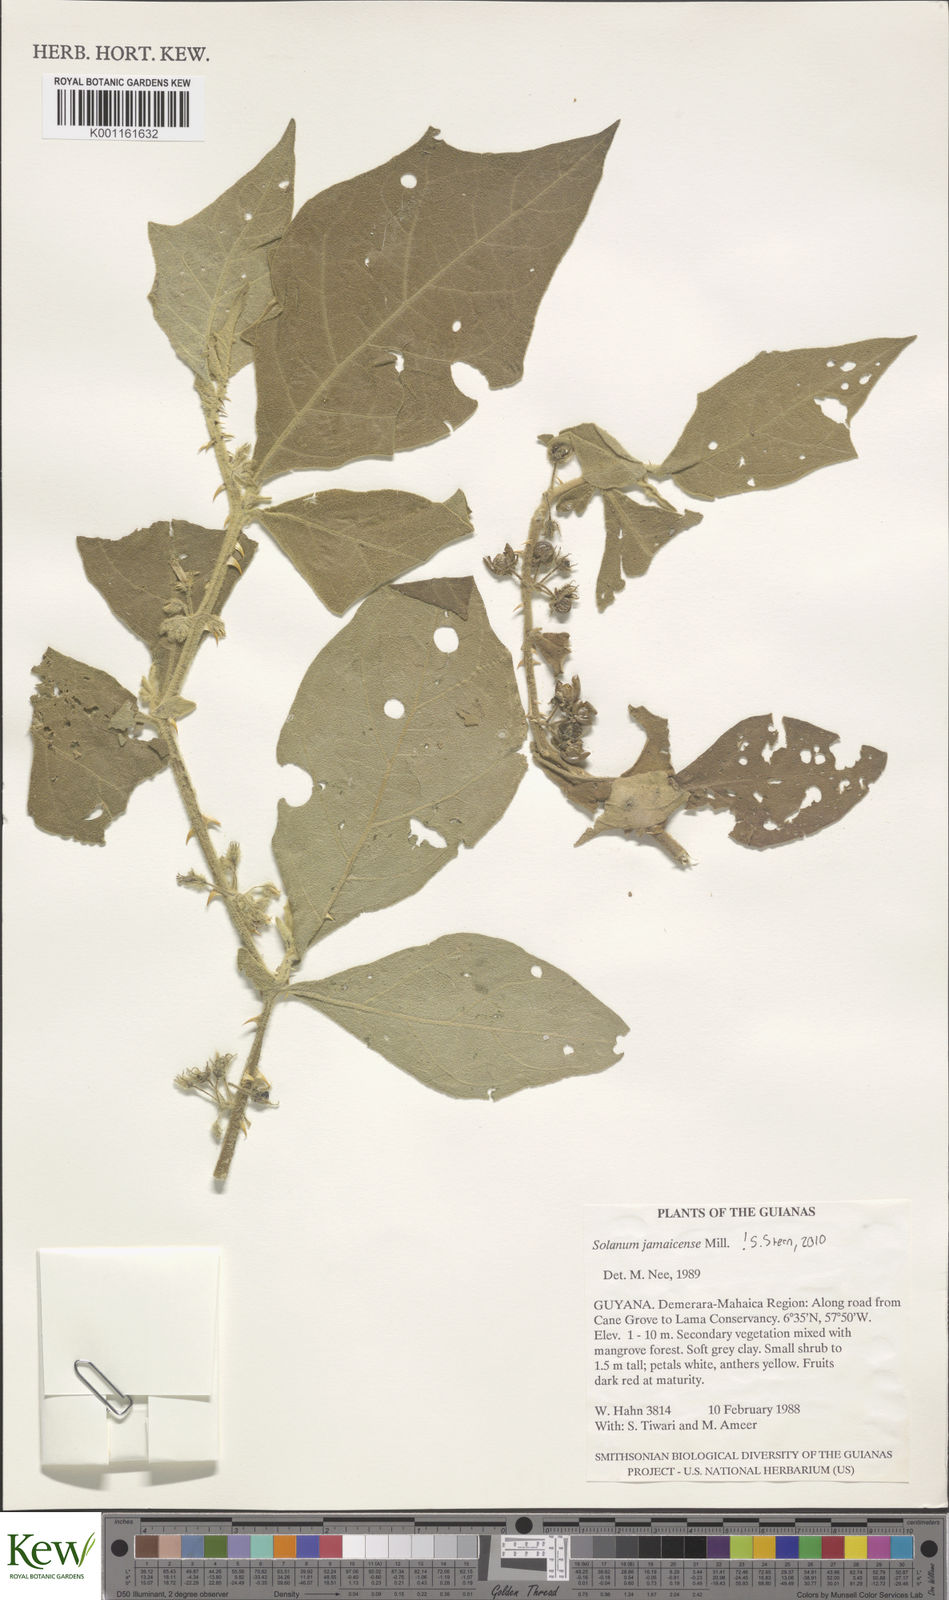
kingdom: Plantae
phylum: Tracheophyta
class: Magnoliopsida
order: Solanales
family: Solanaceae
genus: Solanum
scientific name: Solanum jamaicense
